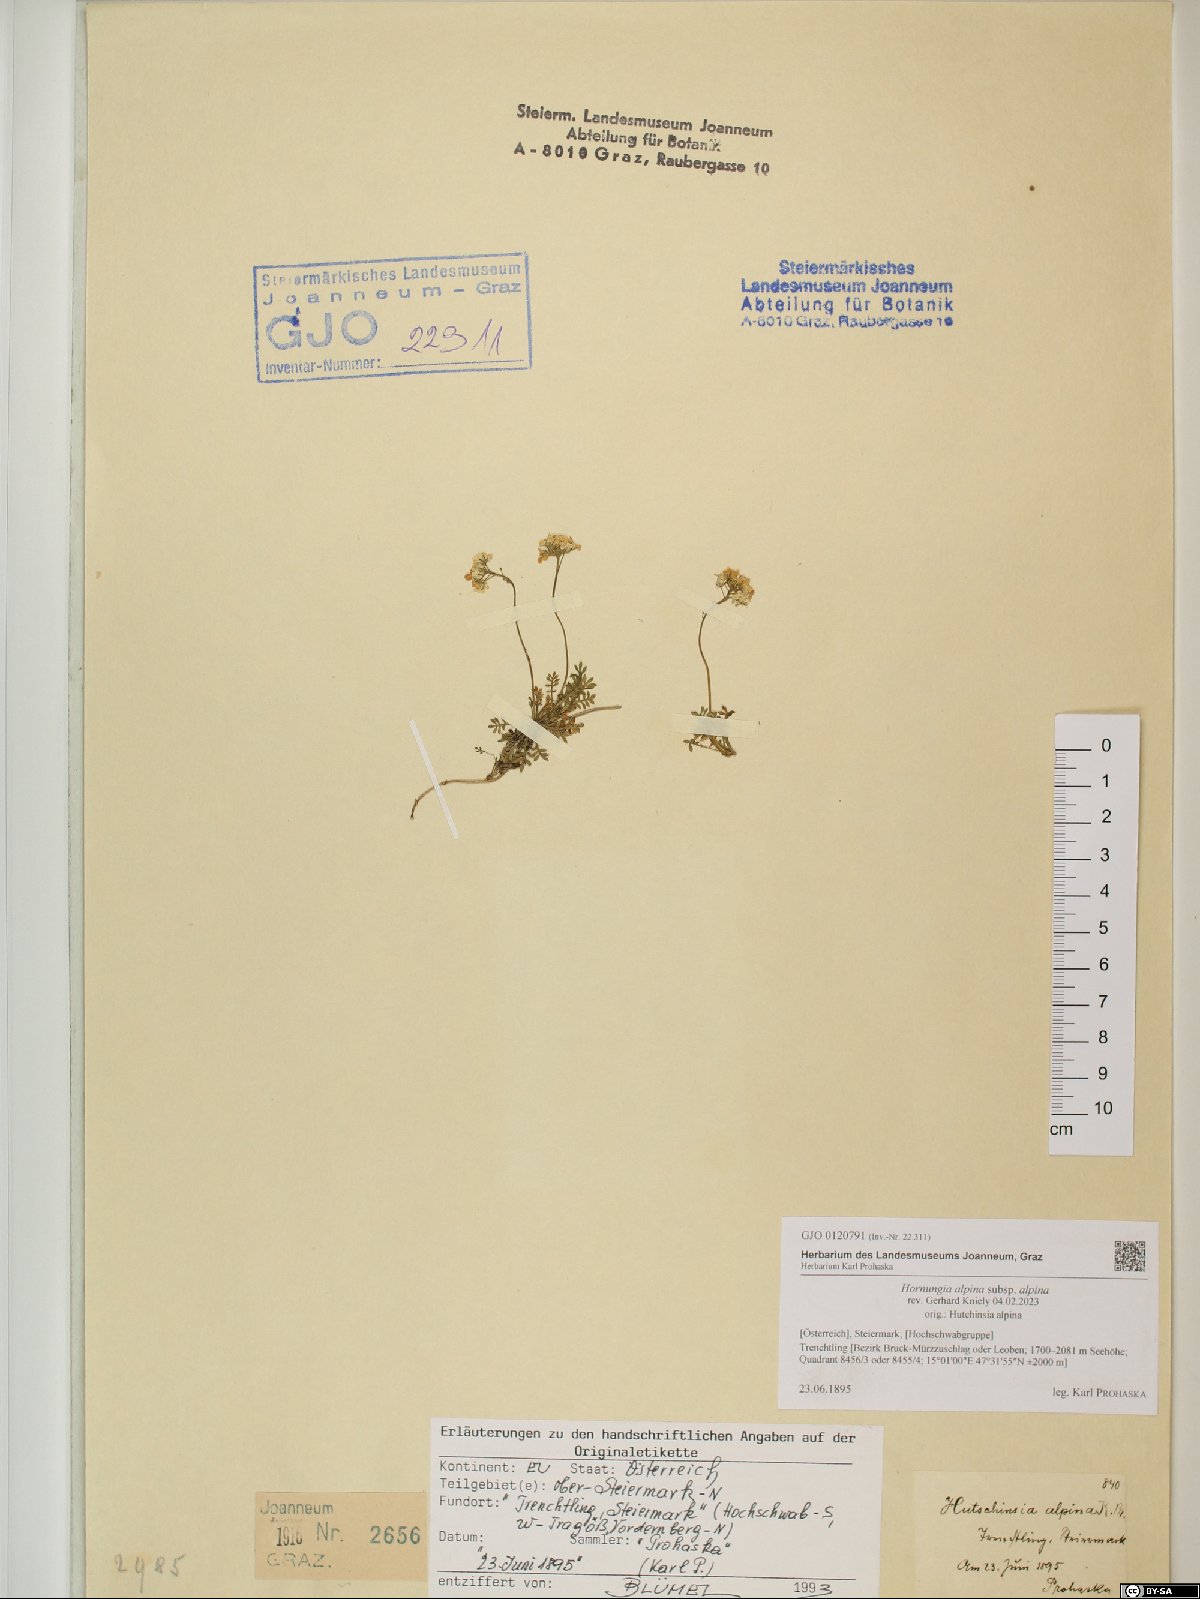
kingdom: Plantae
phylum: Tracheophyta
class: Magnoliopsida
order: Brassicales
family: Brassicaceae
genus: Hornungia
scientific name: Hornungia alpina
